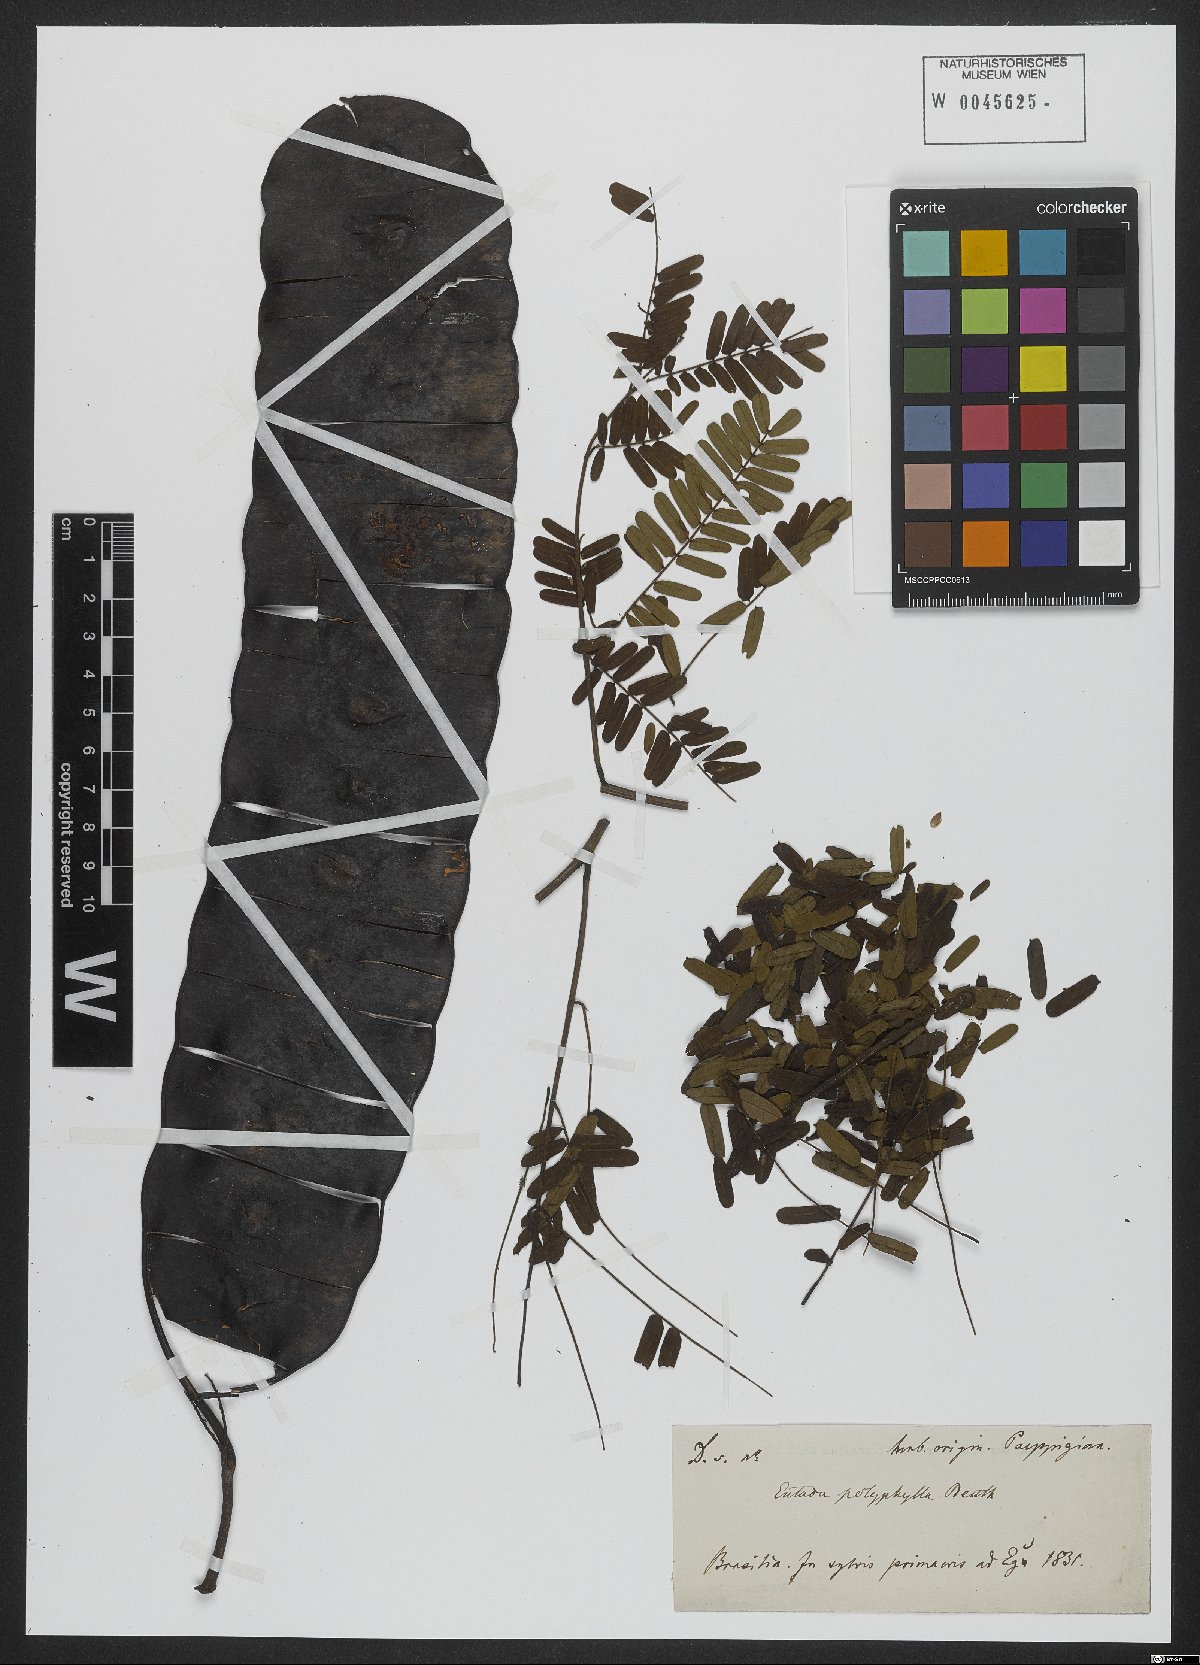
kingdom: Plantae
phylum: Tracheophyta
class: Magnoliopsida
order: Fabales
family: Fabaceae
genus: Entada
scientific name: Entada polyphylla
